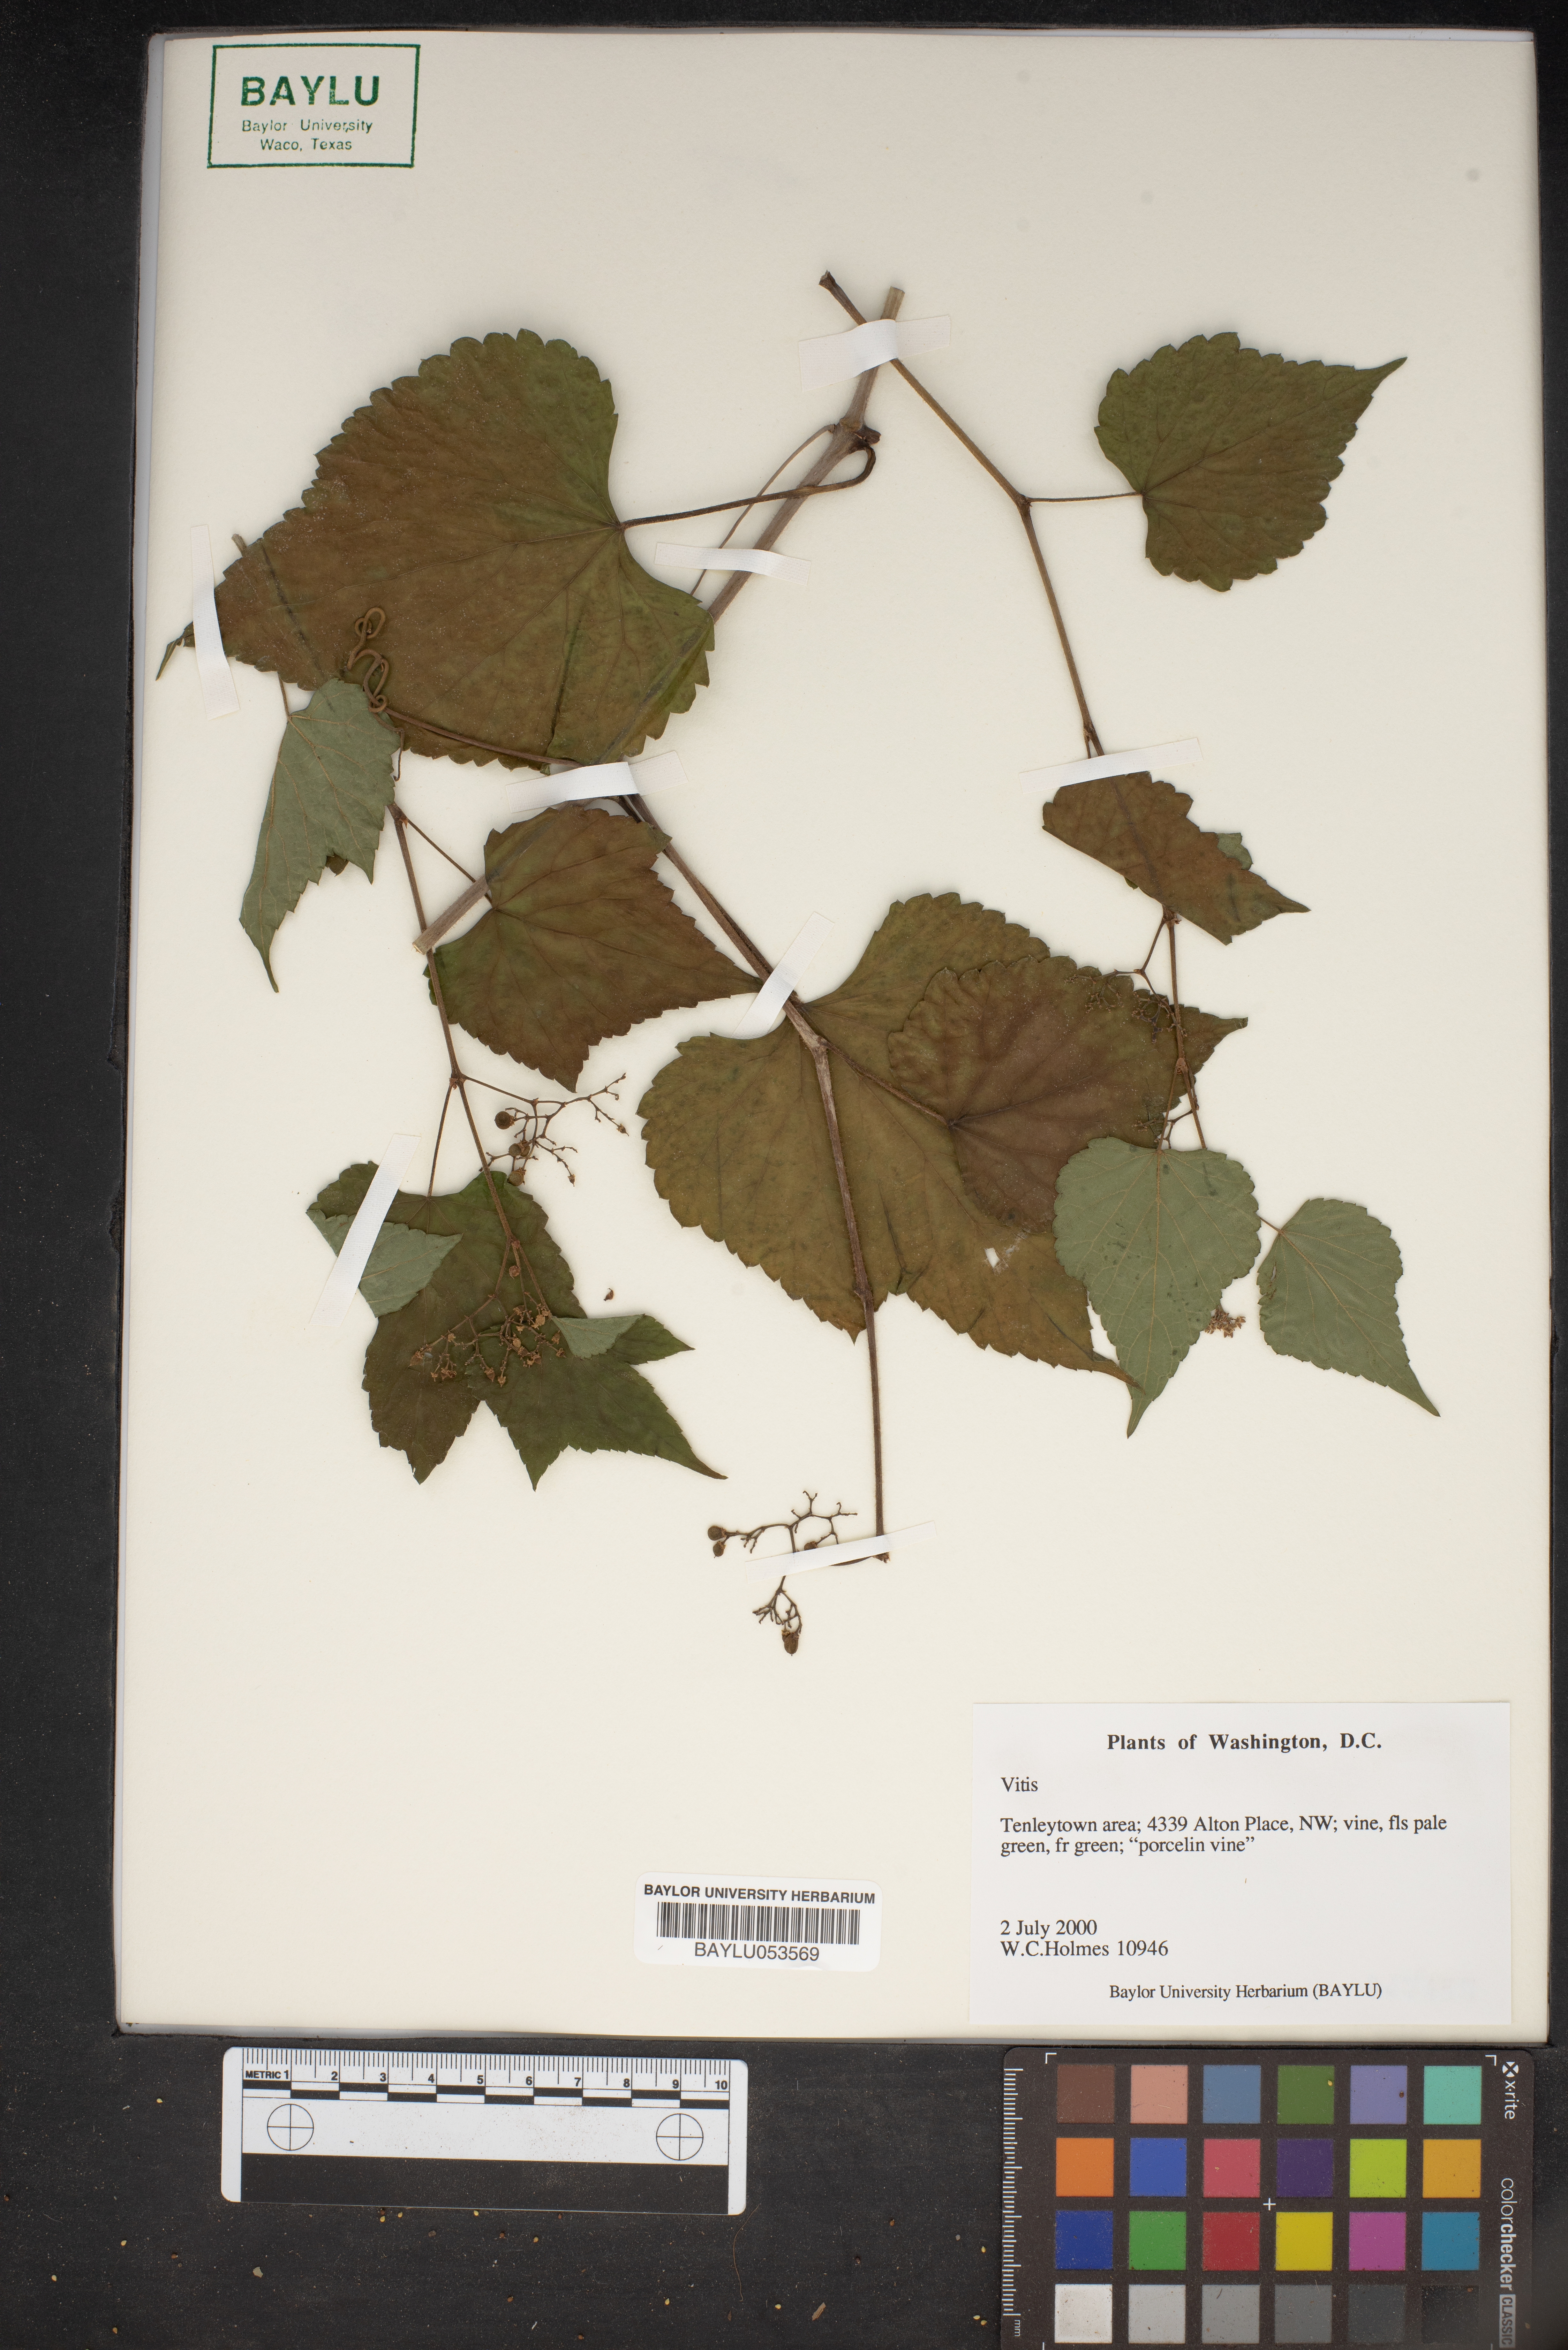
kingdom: Plantae
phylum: Tracheophyta
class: Magnoliopsida
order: Vitales
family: Vitaceae
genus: Vitis
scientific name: Vitis
